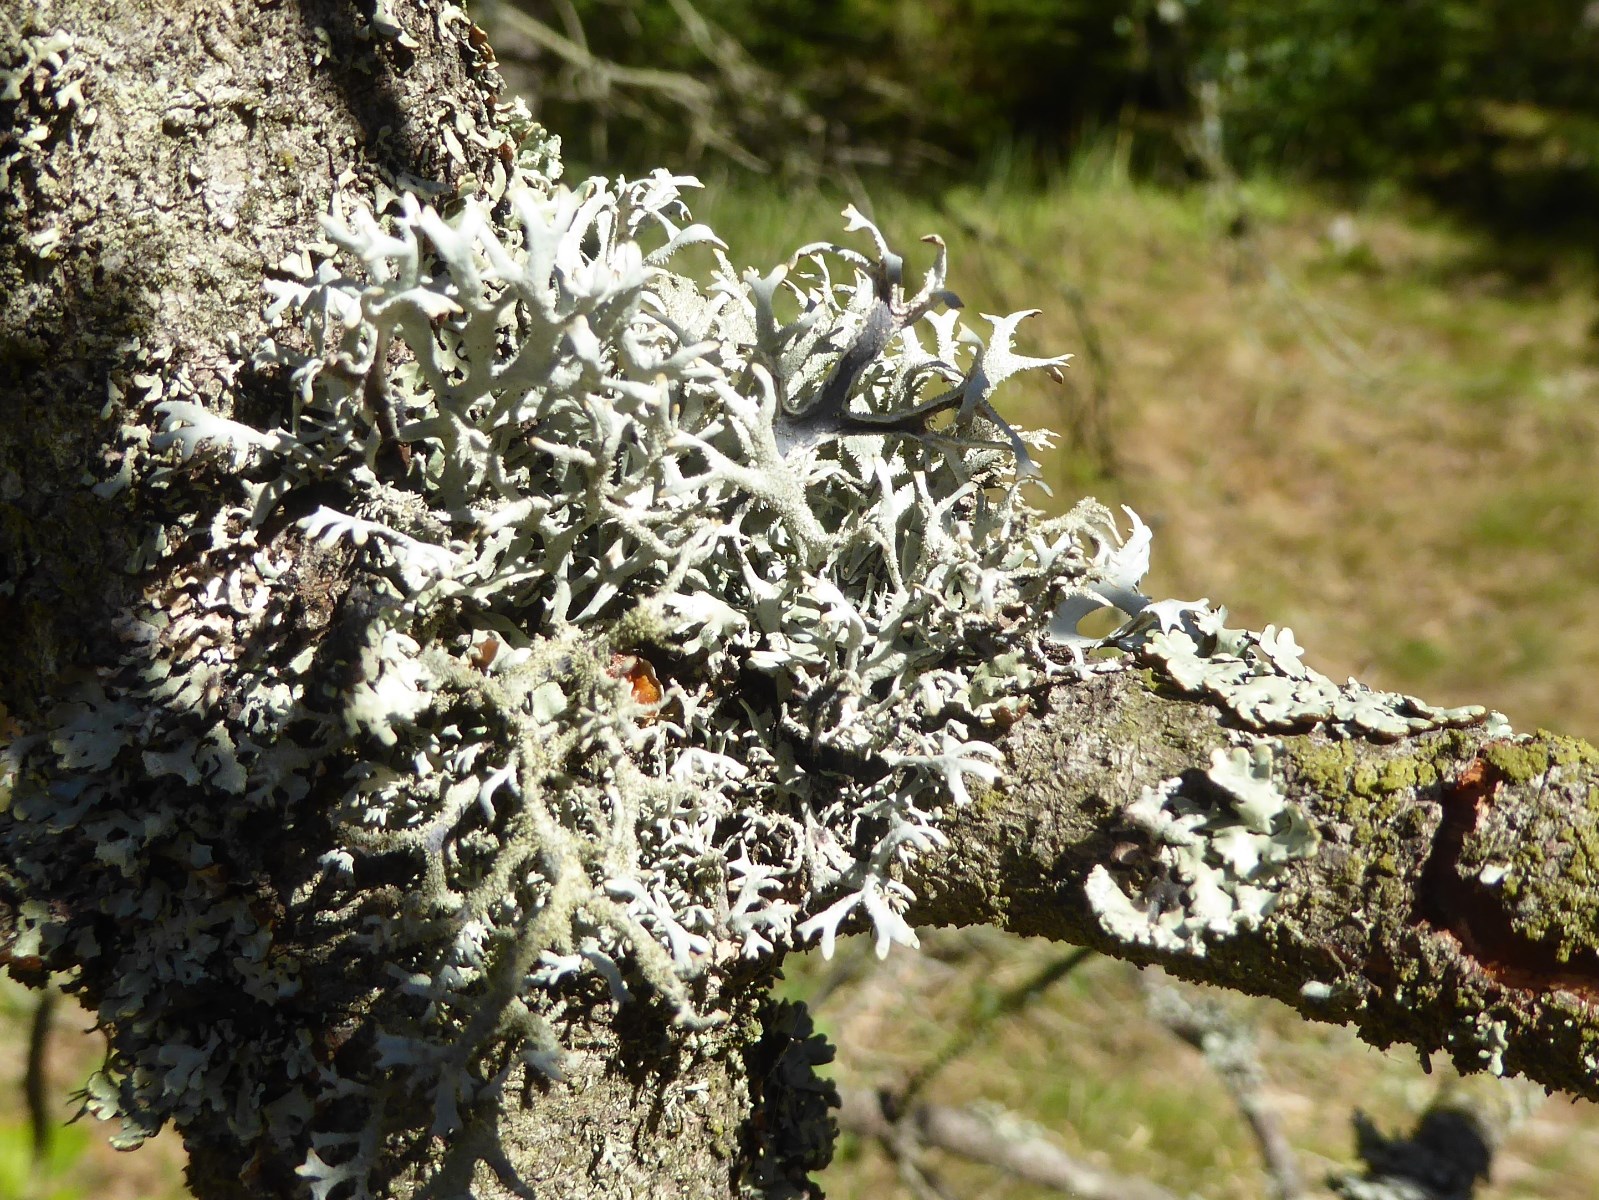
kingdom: Fungi
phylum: Ascomycota
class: Lecanoromycetes
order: Lecanorales
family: Parmeliaceae
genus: Pseudevernia
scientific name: Pseudevernia furfuracea
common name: grå fyrrelav
